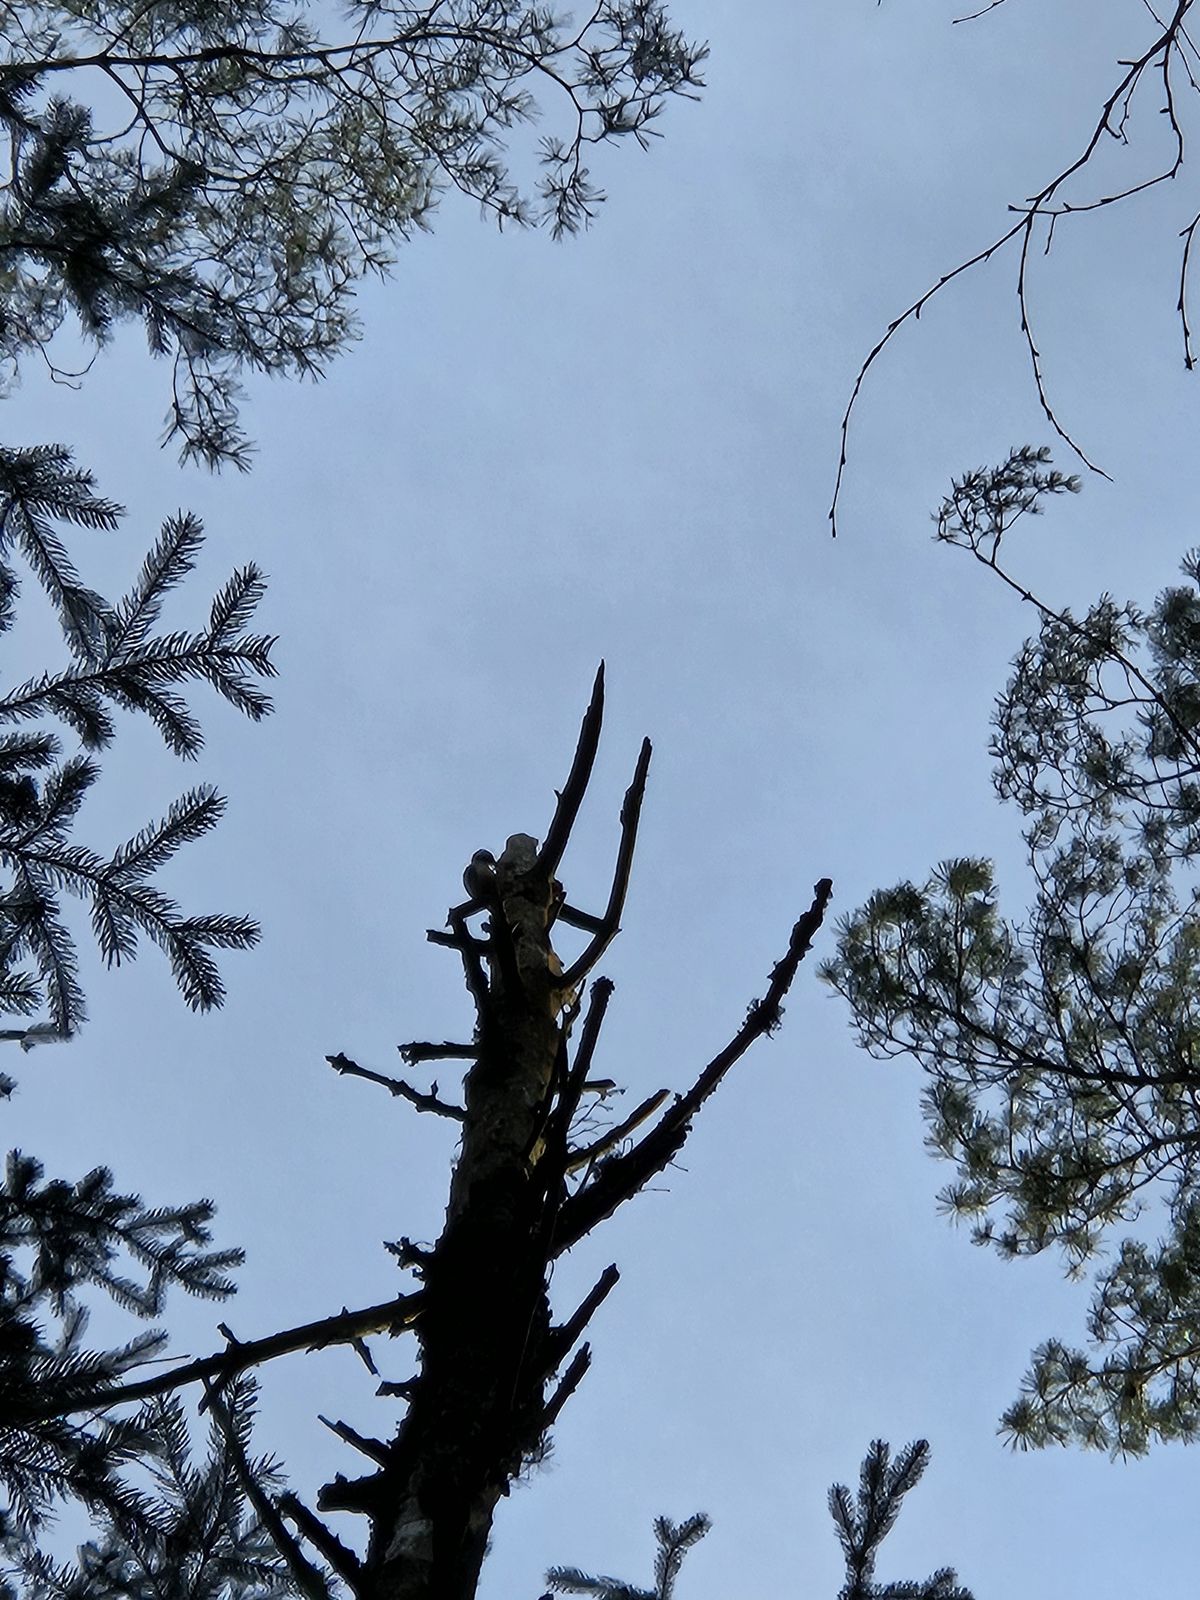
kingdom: Animalia
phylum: Chordata
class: Aves
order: Piciformes
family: Picidae
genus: Dendrocopos
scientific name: Dendrocopos major
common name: Great spotted woodpecker
